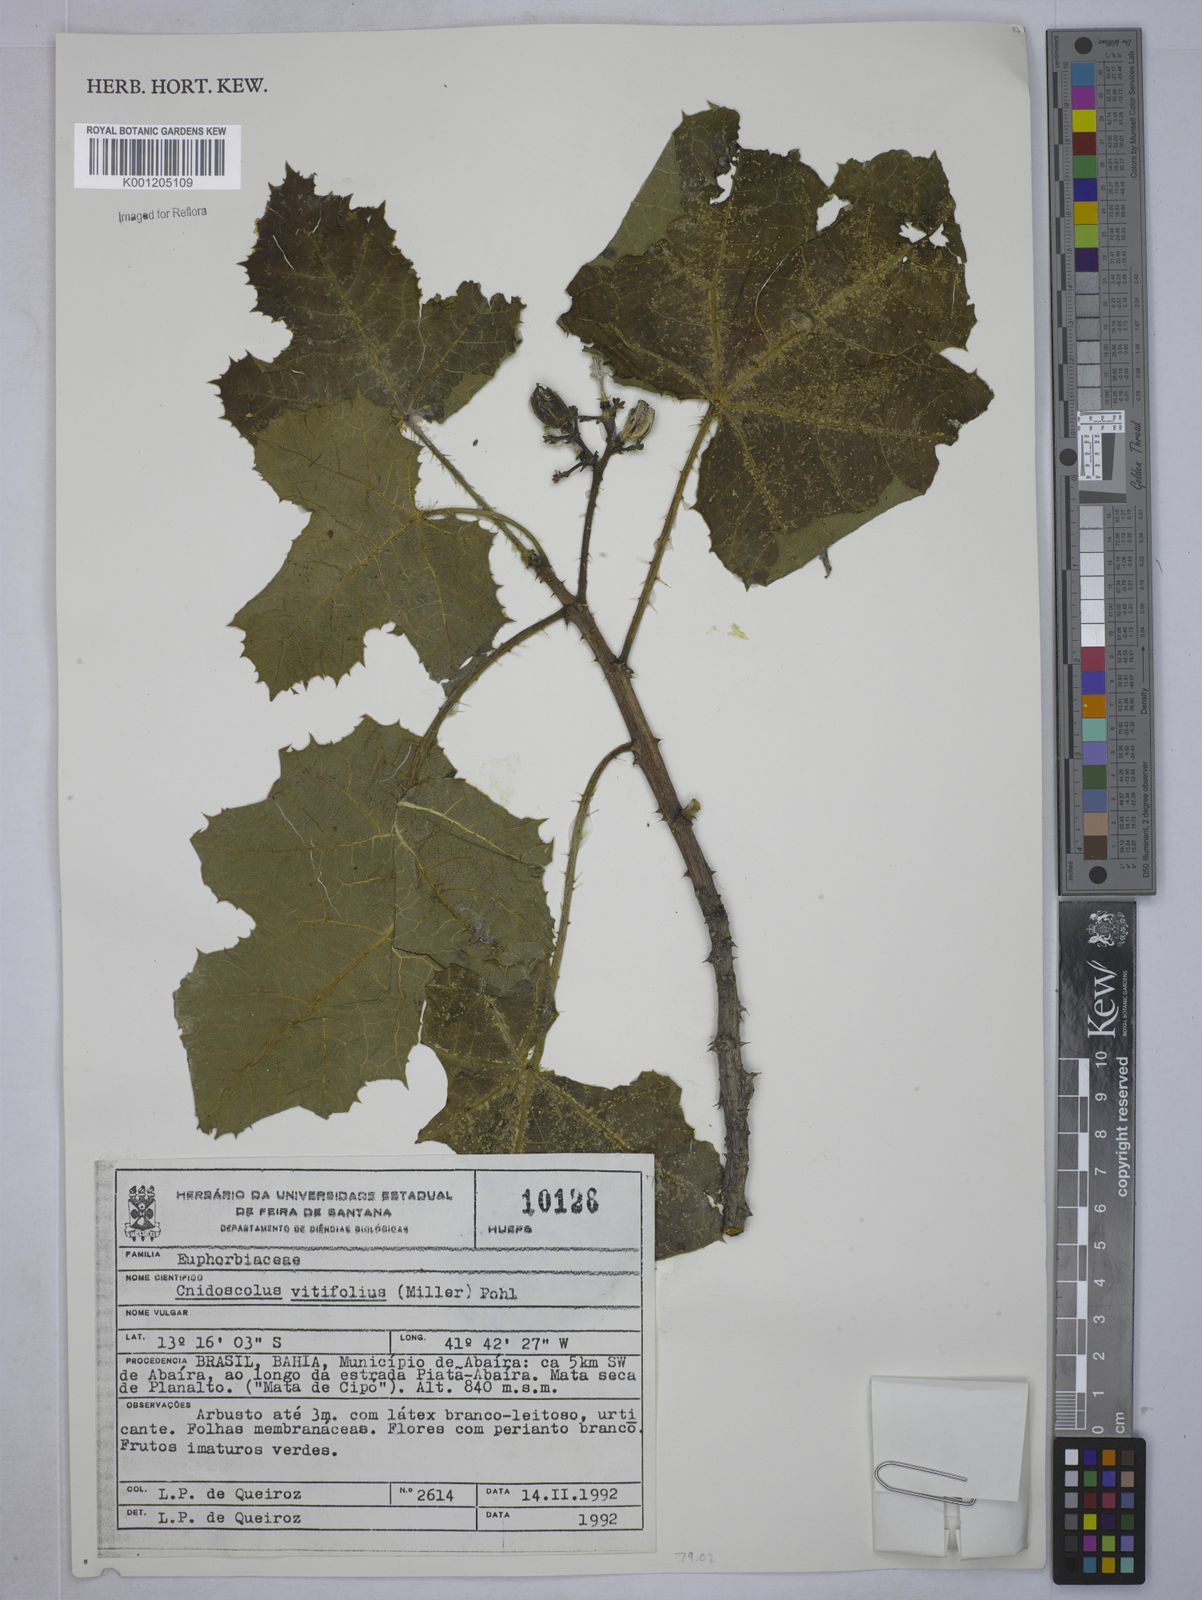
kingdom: Plantae
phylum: Tracheophyta
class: Magnoliopsida
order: Malpighiales
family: Euphorbiaceae
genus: Cnidoscolus
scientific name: Cnidoscolus vitifolius
